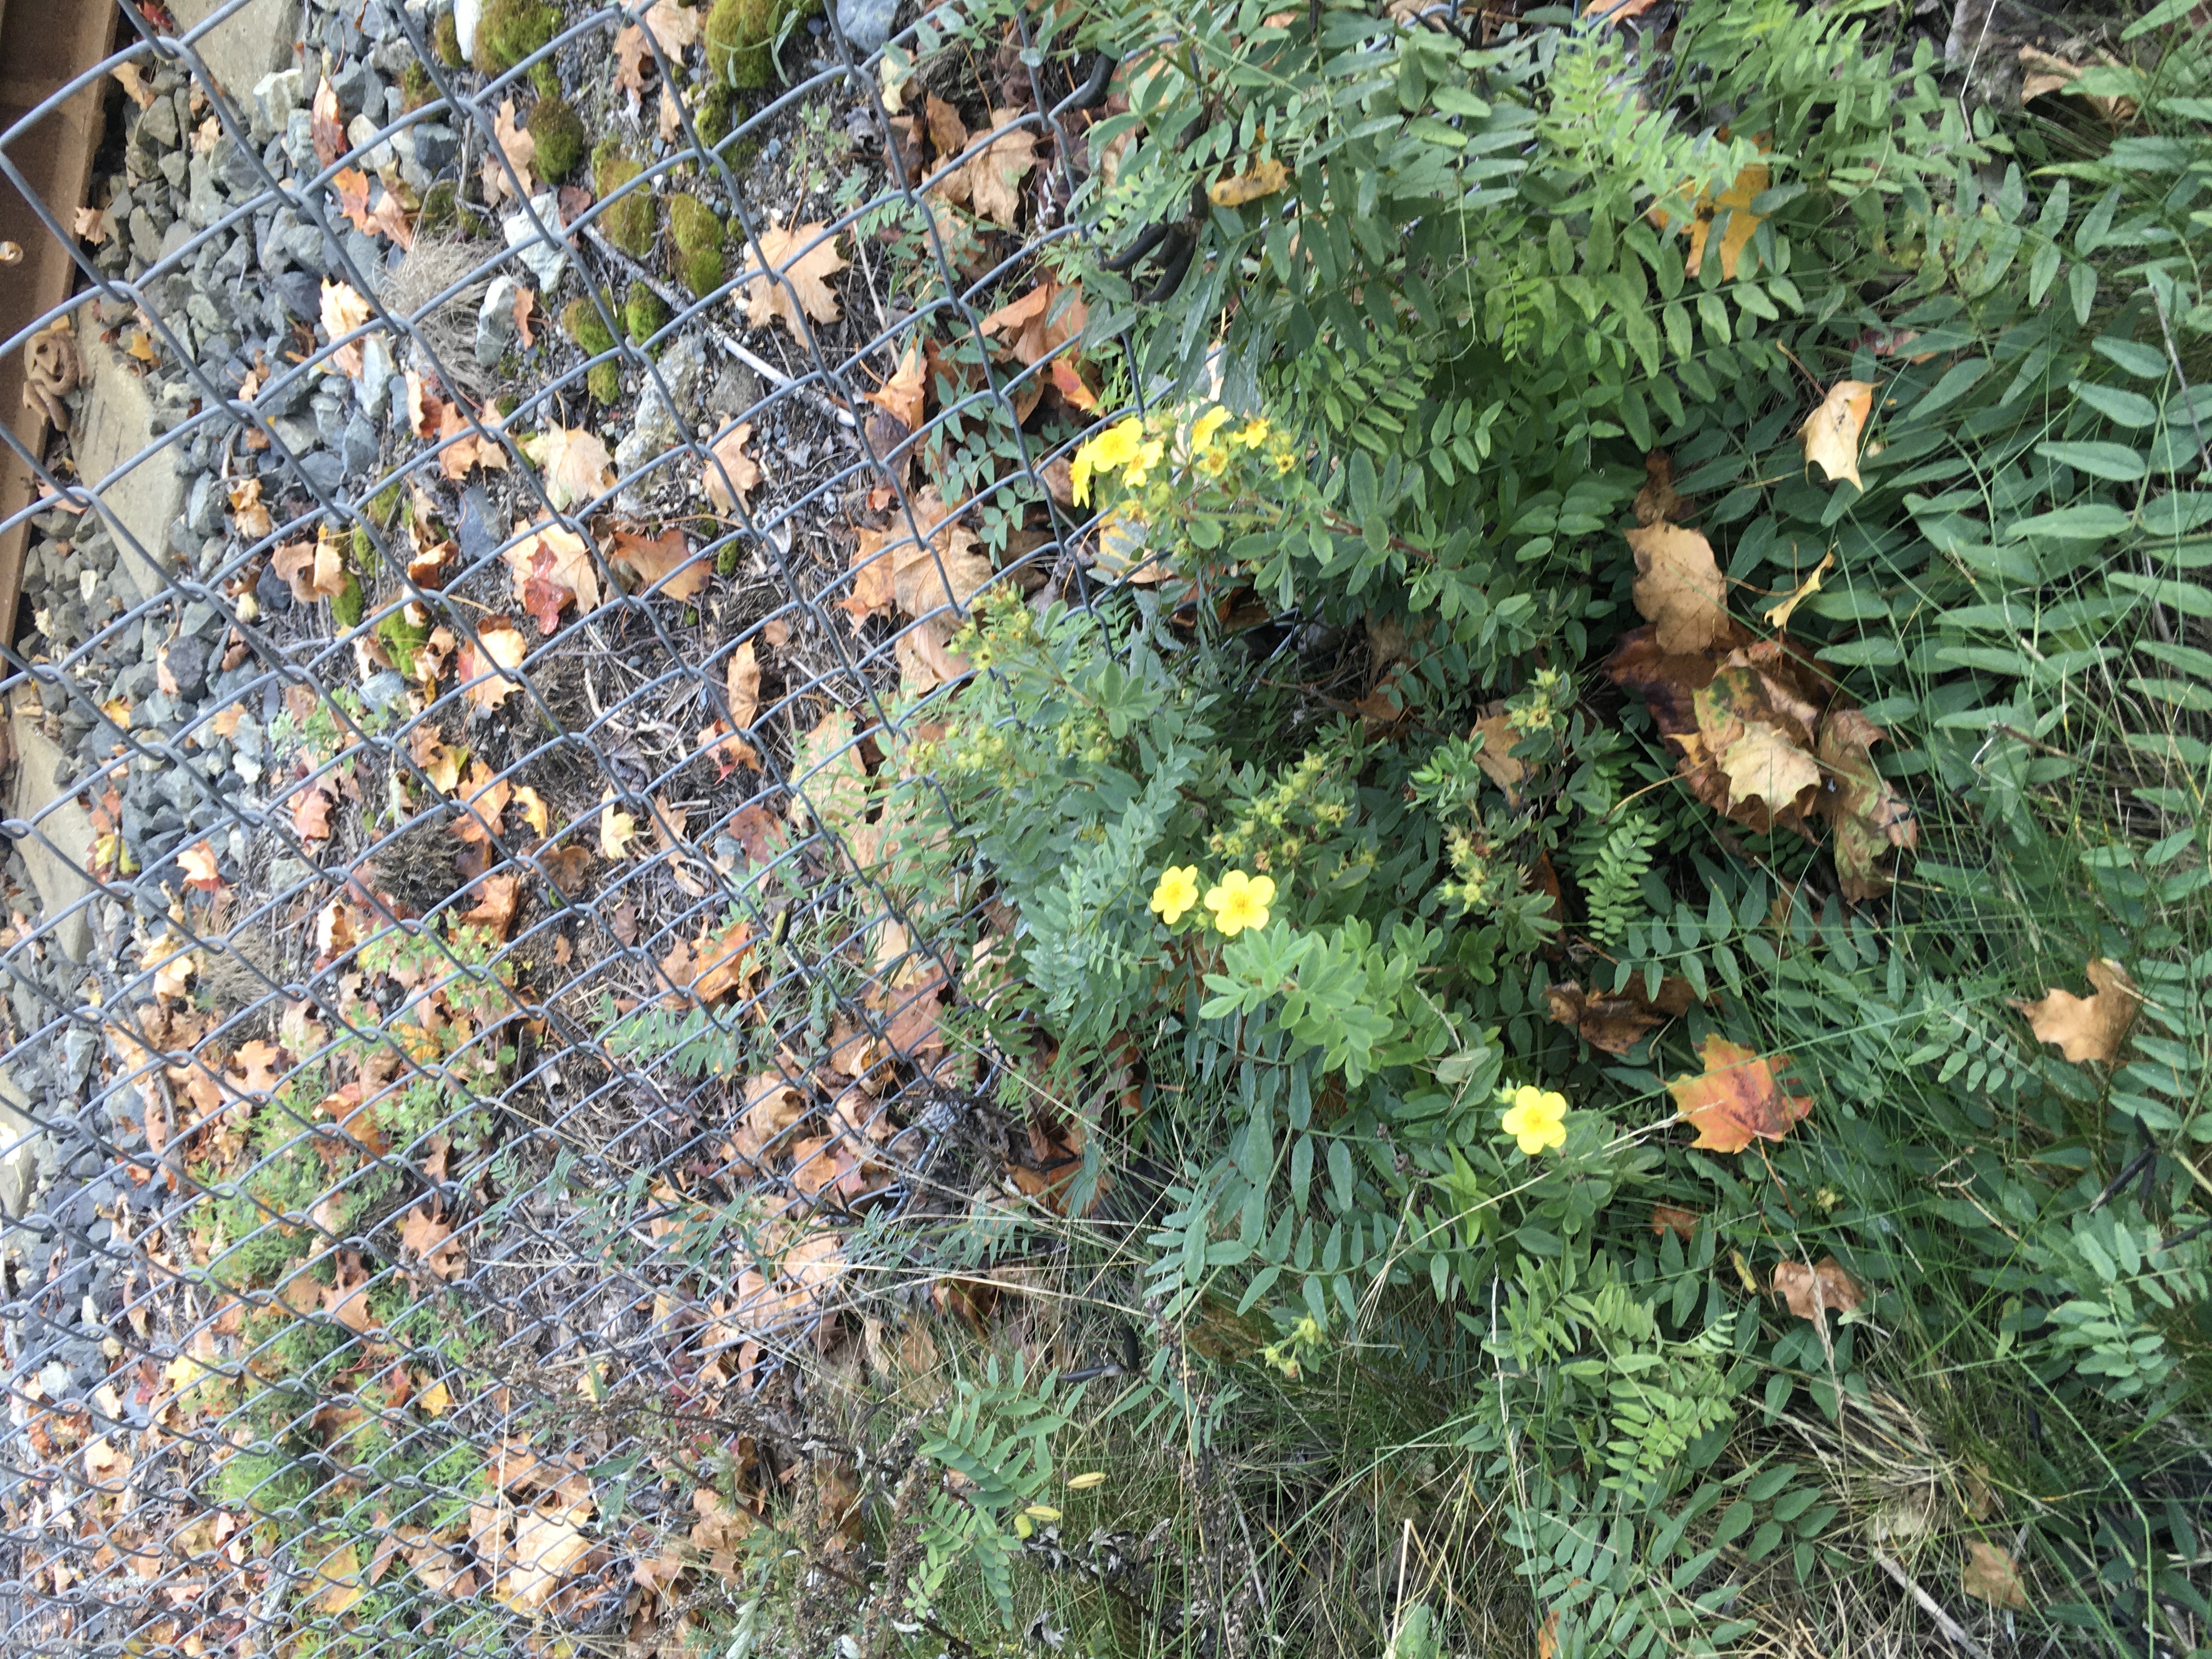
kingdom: Plantae
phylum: Tracheophyta
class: Magnoliopsida
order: Rosales
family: Rosaceae
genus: Dasiphora
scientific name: Dasiphora fruticosa
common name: buskmure
